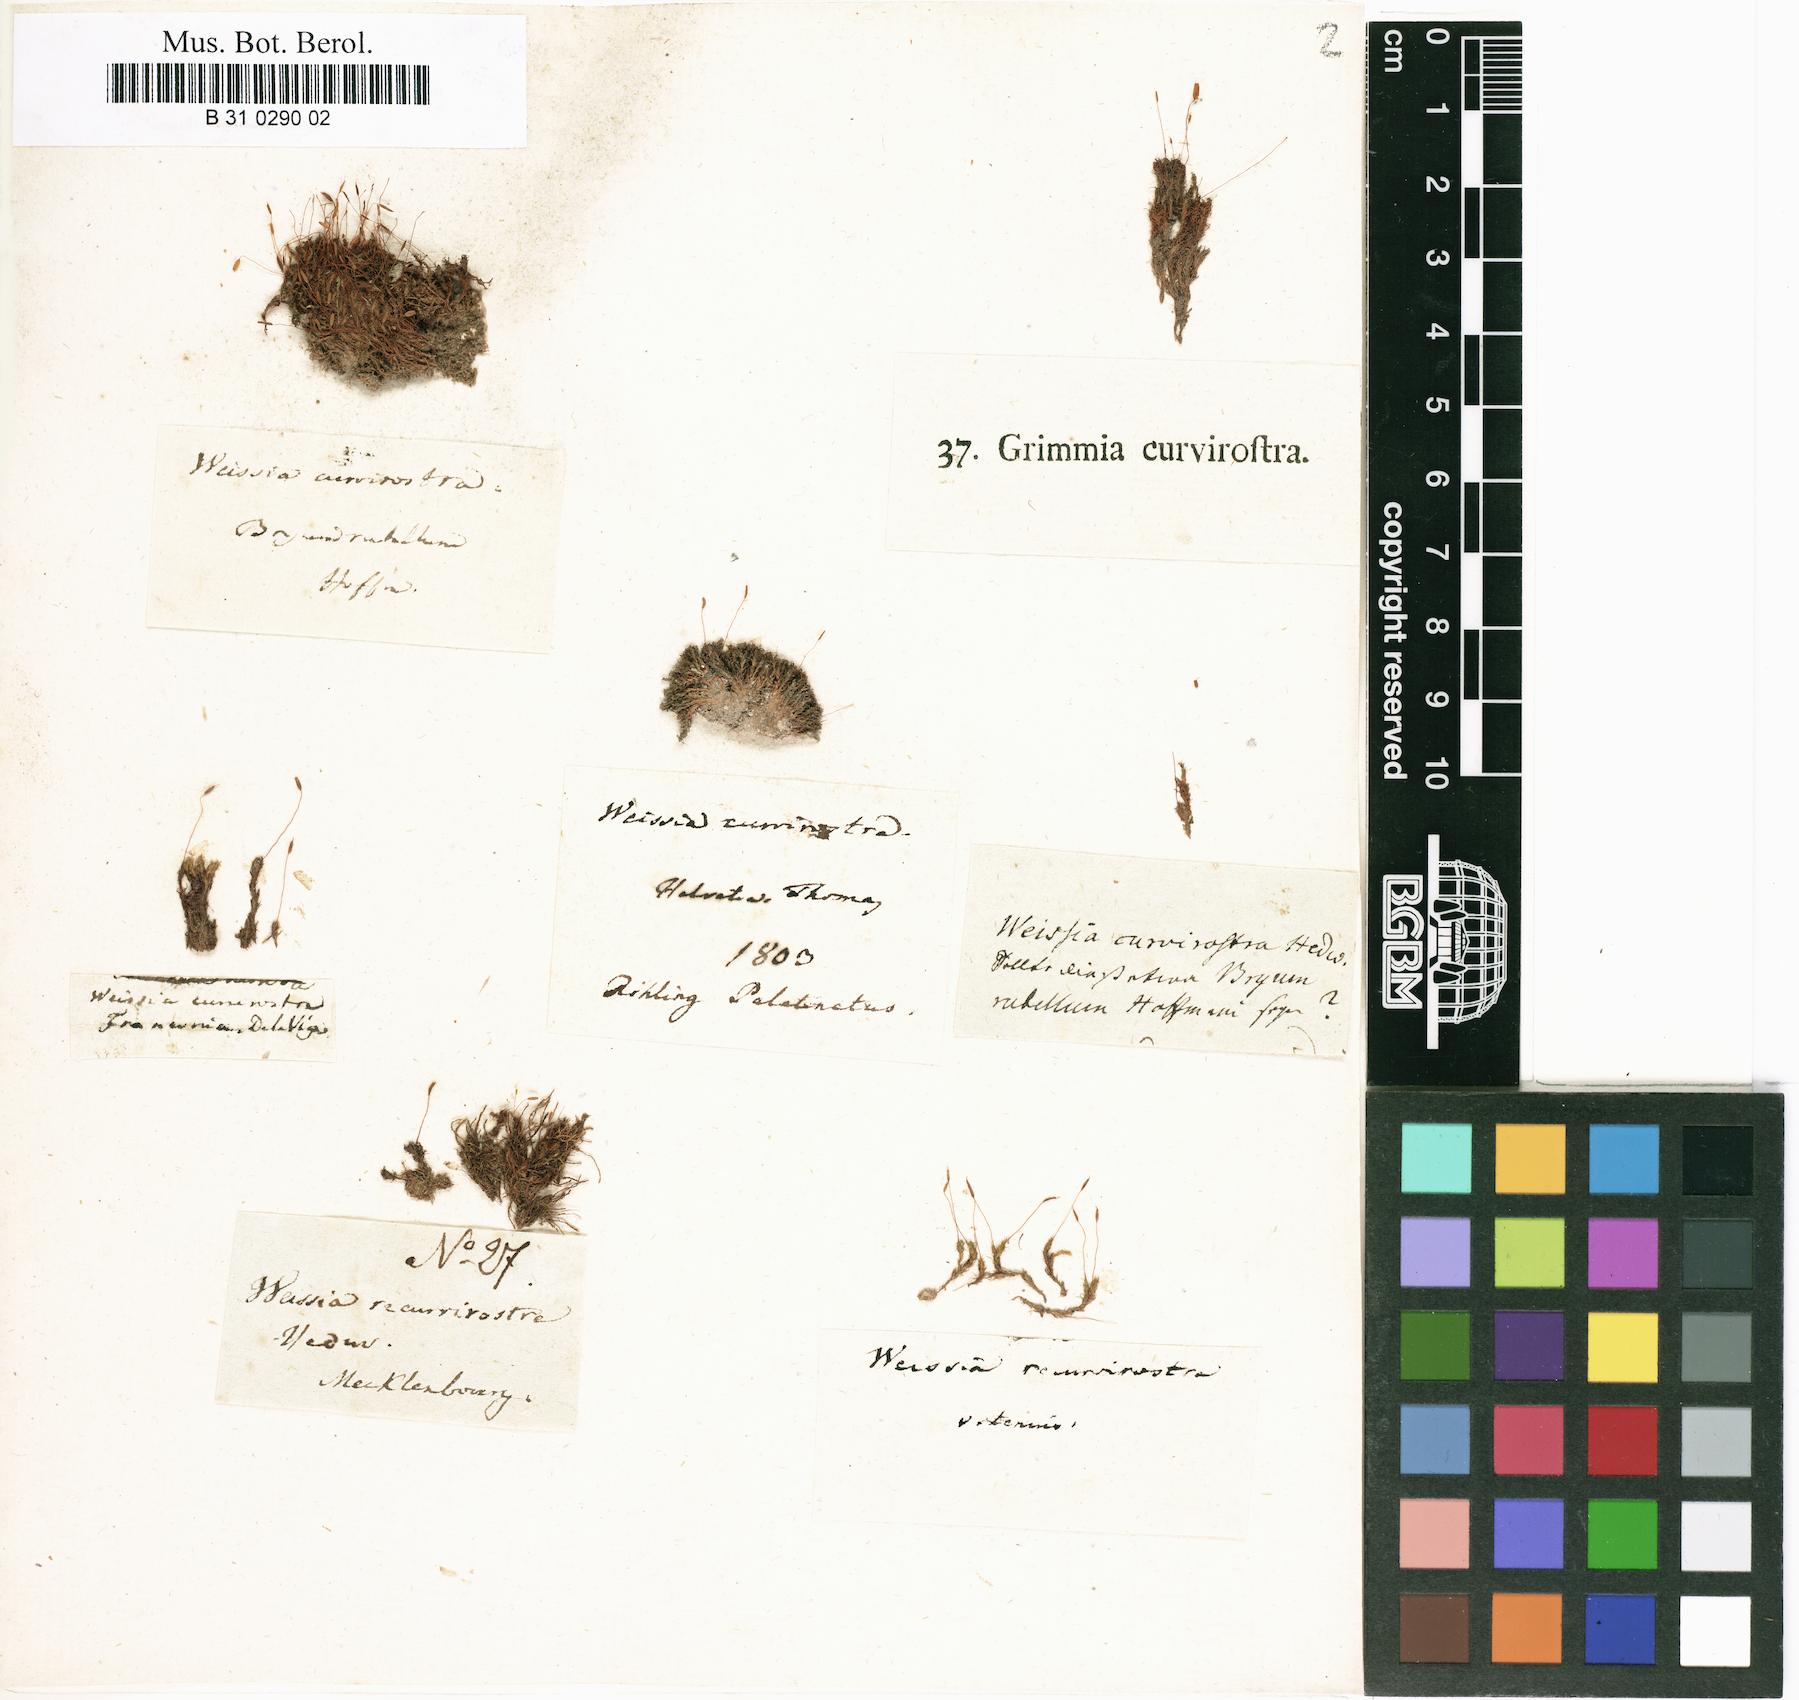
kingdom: Plantae
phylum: Bryophyta
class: Bryopsida
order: Pottiales
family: Pottiaceae
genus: Bryoerythrophyllum
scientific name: Bryoerythrophyllum recurvirostrum
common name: Red beard moss
